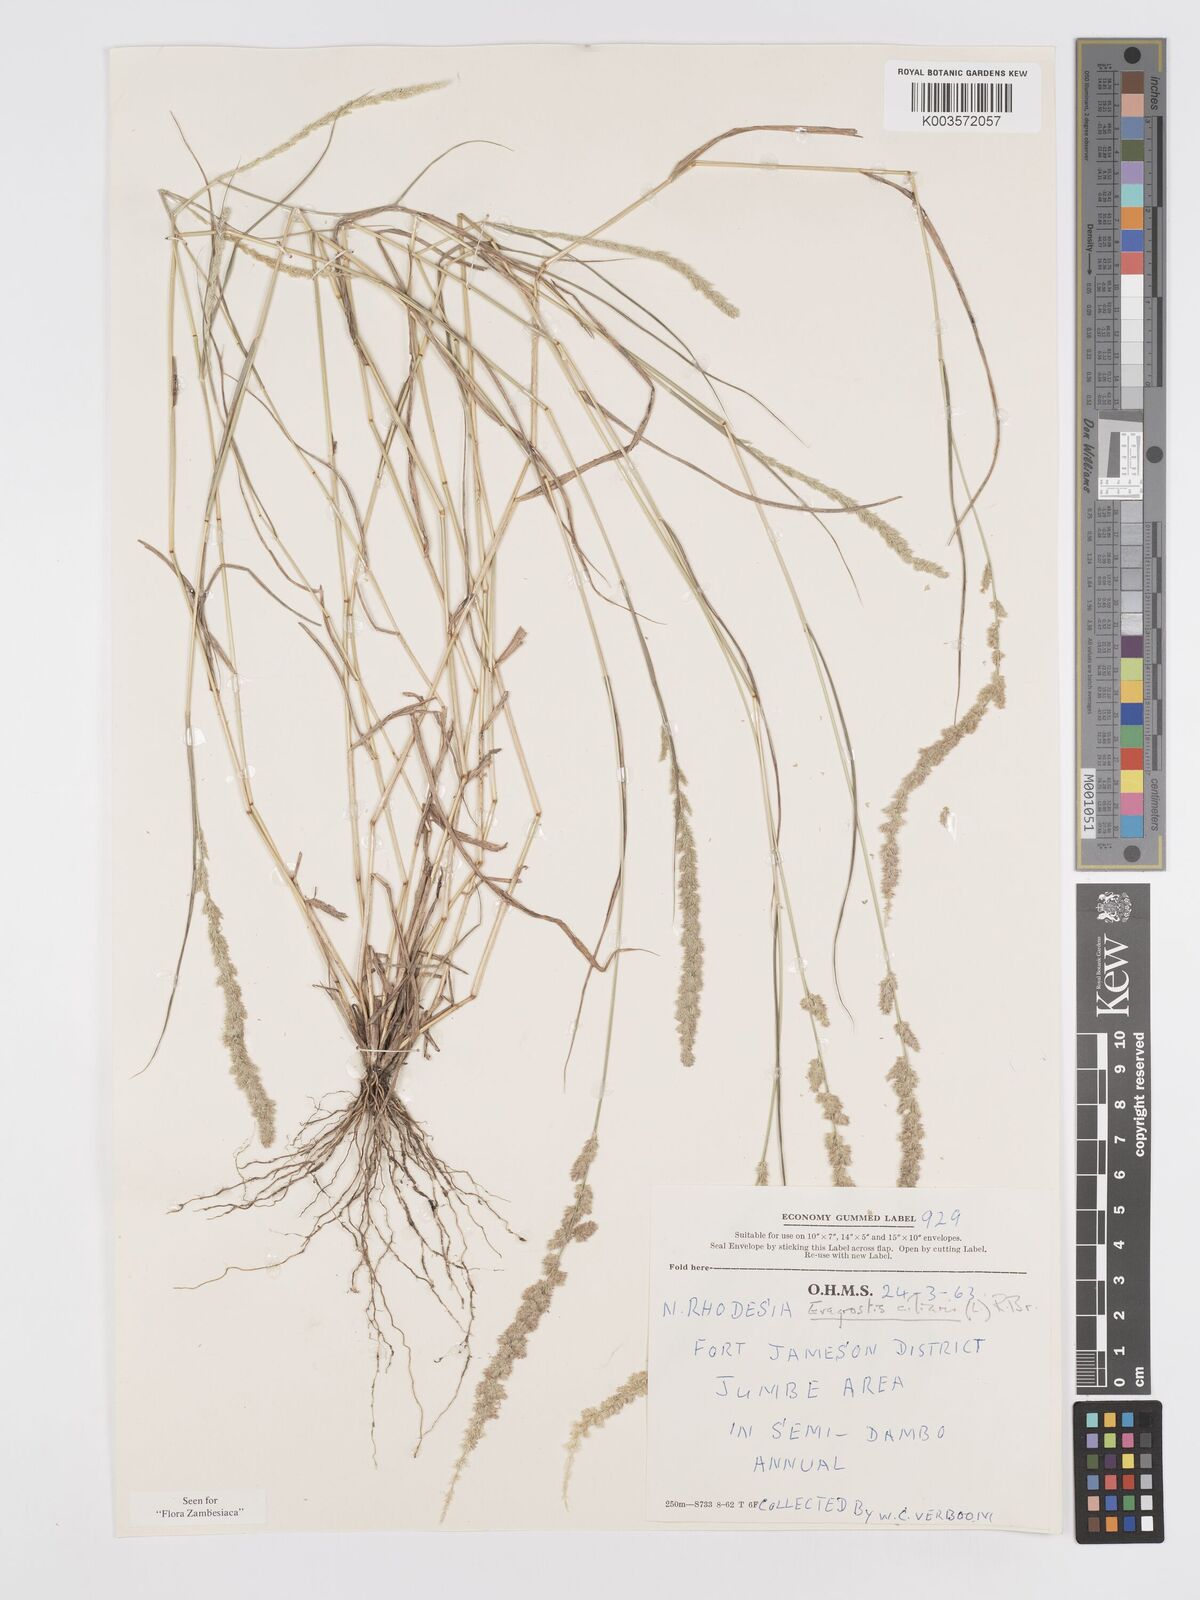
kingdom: Plantae
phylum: Tracheophyta
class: Liliopsida
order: Poales
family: Poaceae
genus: Eragrostis
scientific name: Eragrostis ciliaris
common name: Gophertail lovegrass
